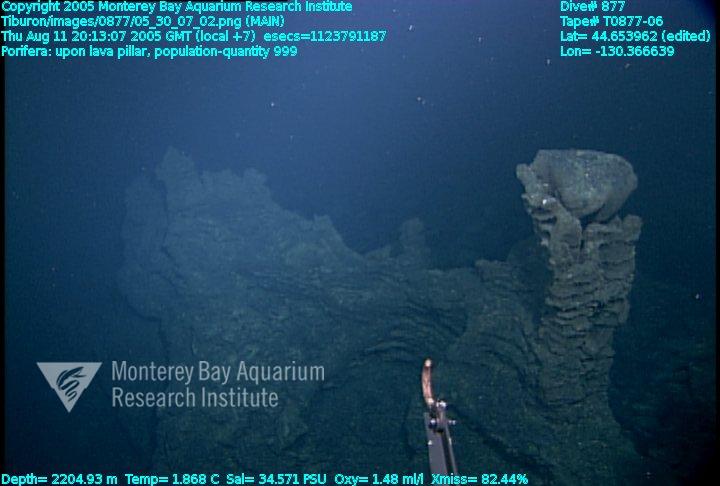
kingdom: Animalia
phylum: Porifera
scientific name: Porifera
